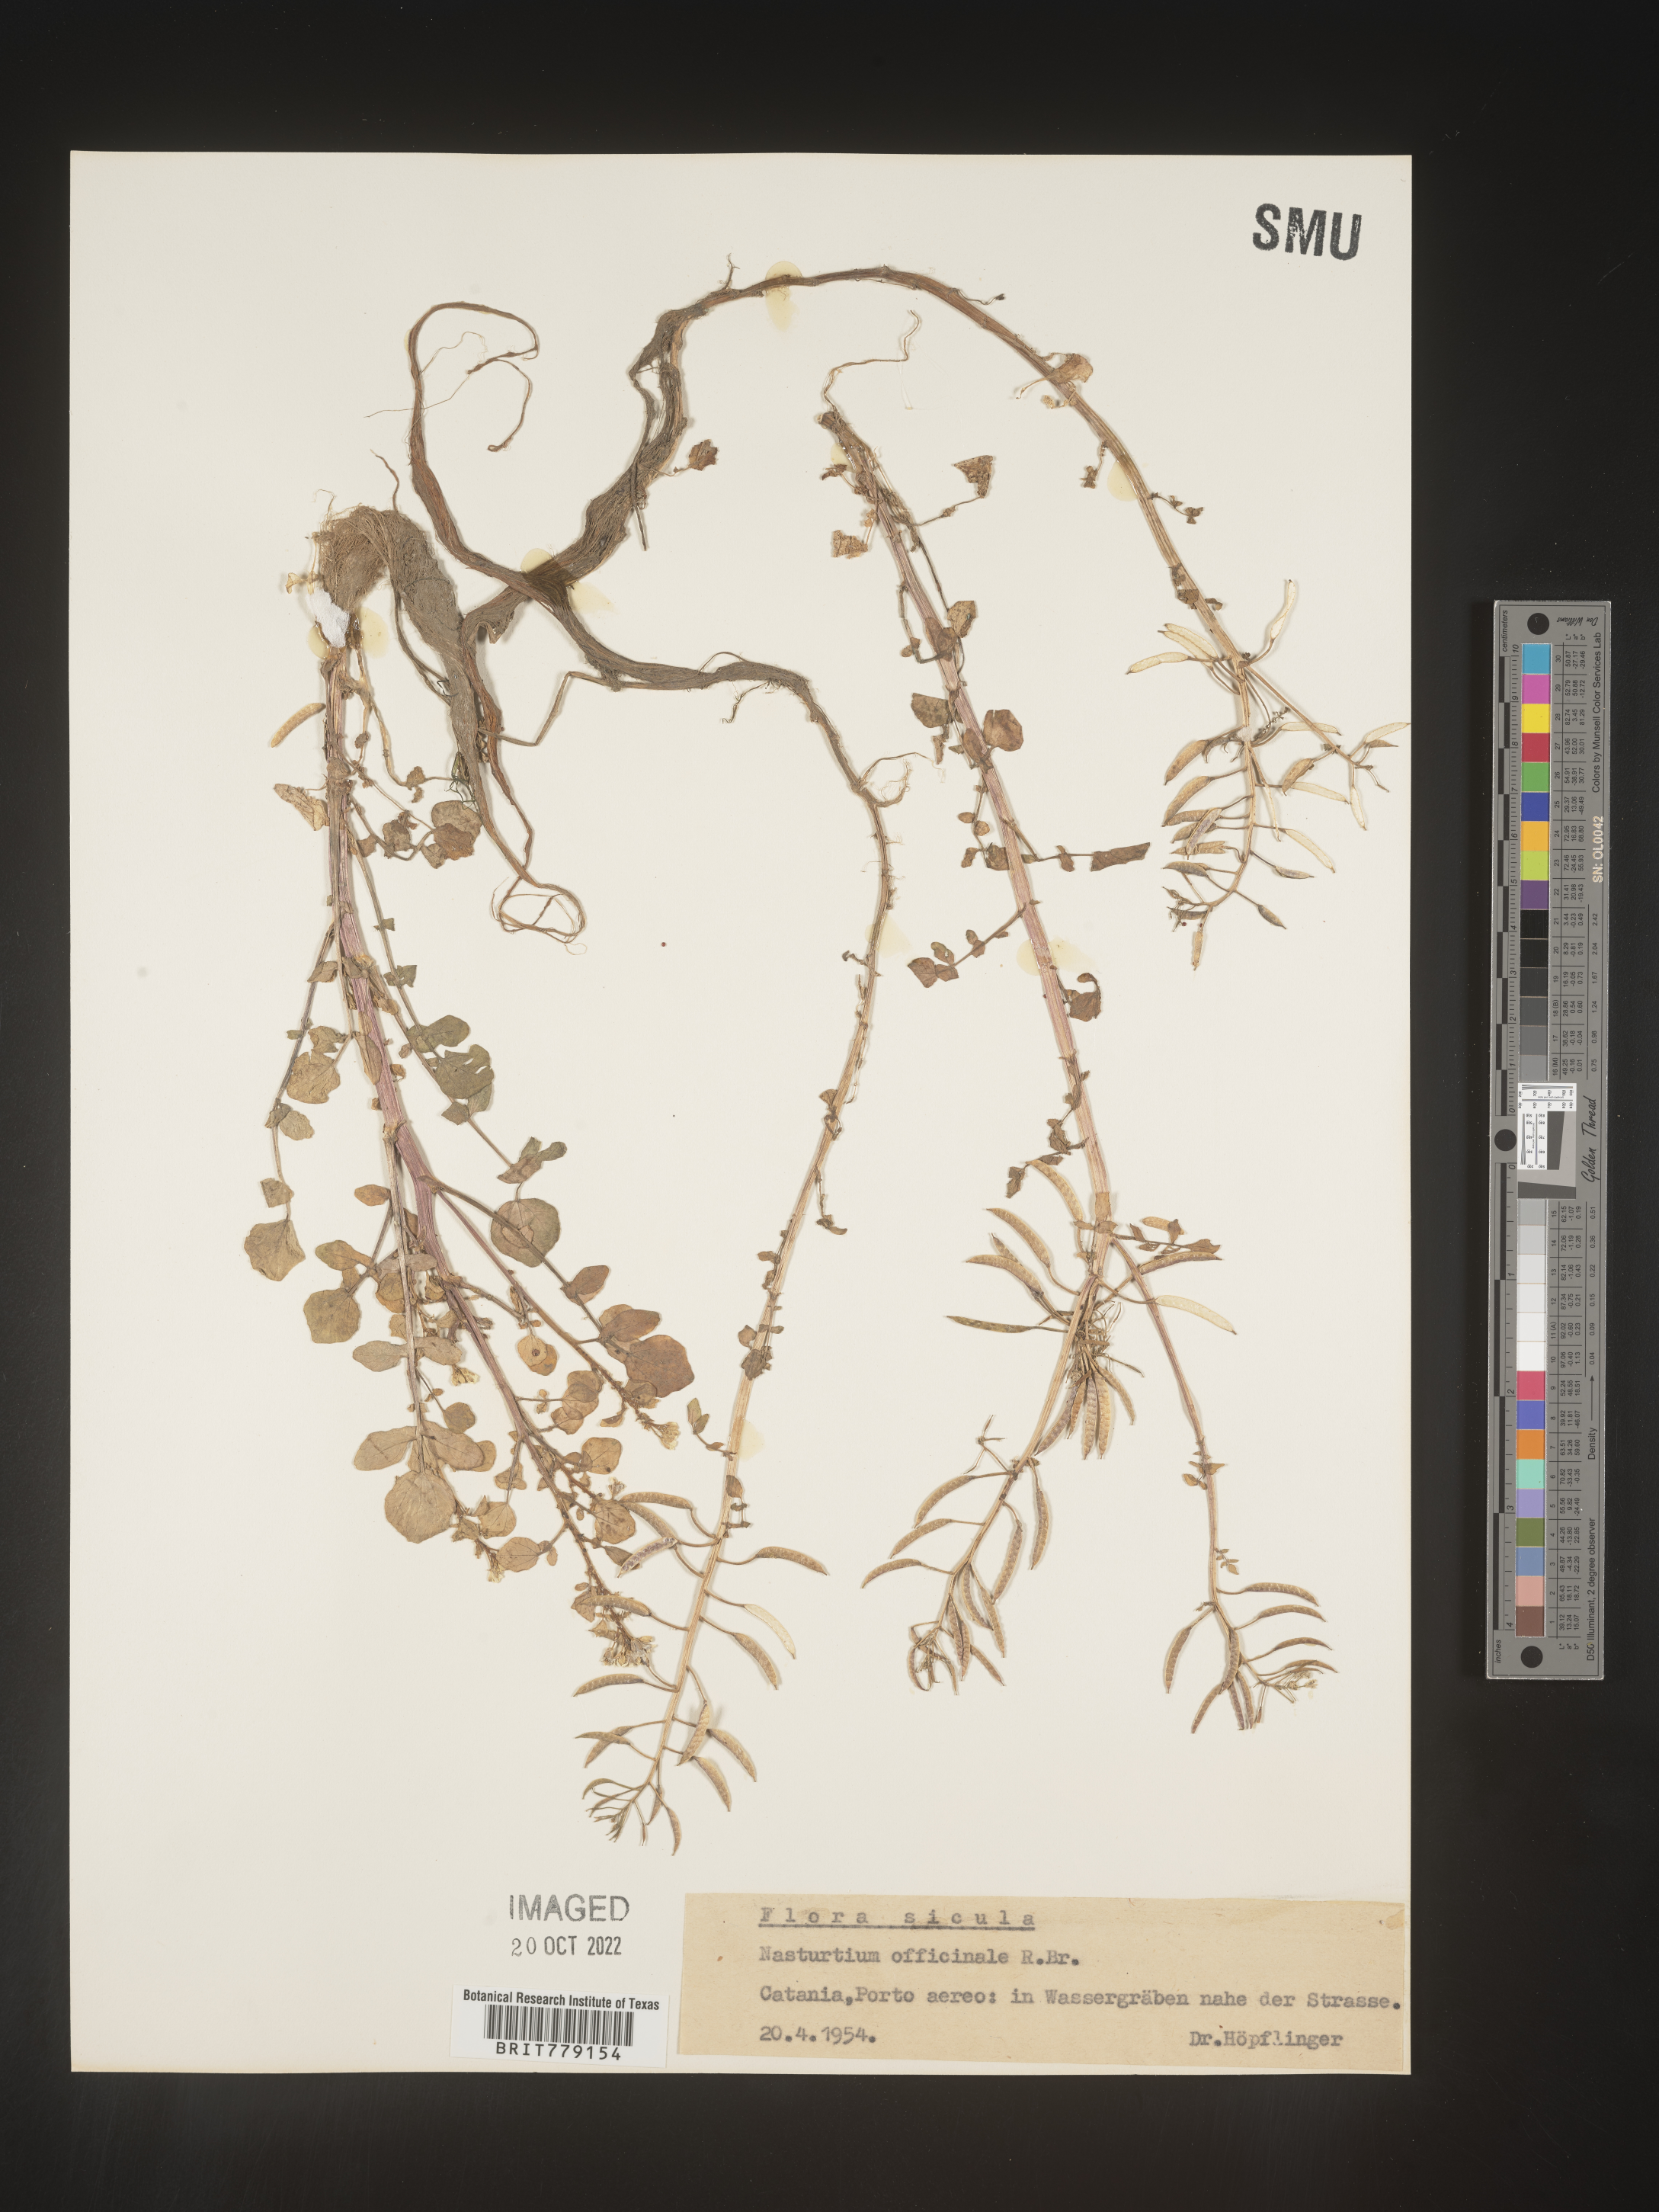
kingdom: Plantae
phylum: Tracheophyta
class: Magnoliopsida
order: Brassicales
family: Brassicaceae
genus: Rorippa
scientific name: Rorippa
